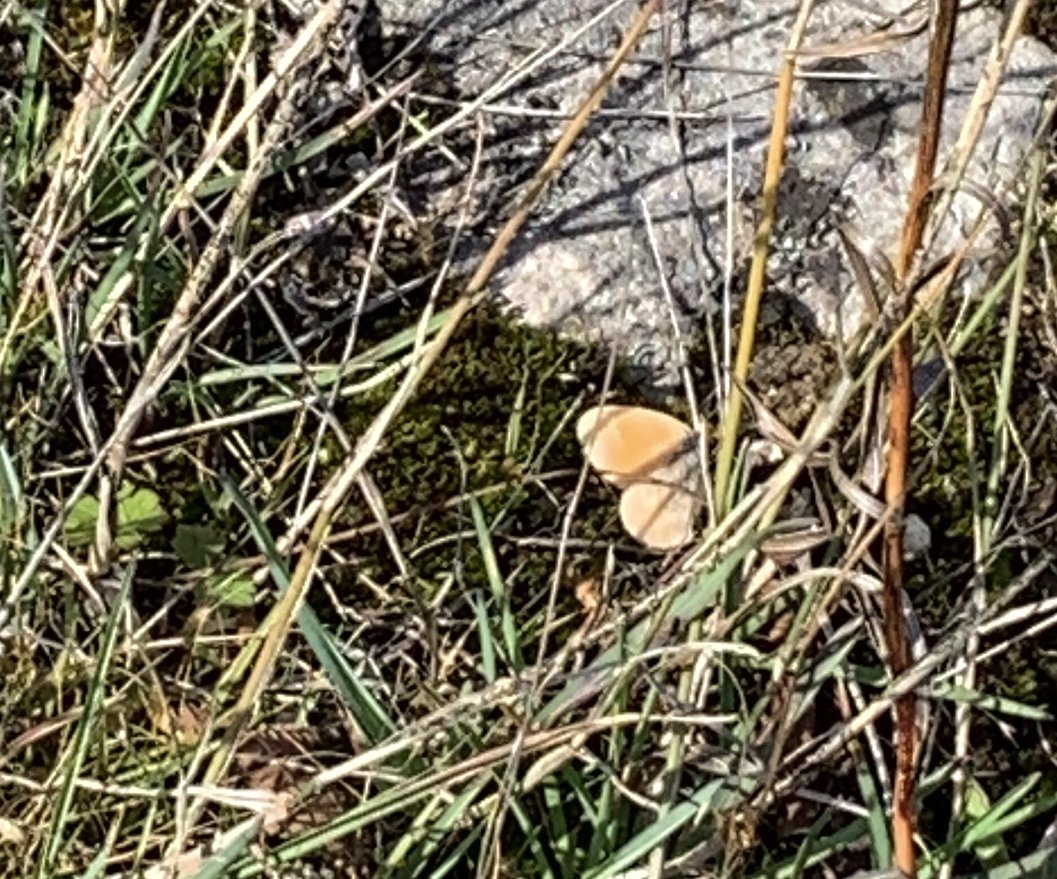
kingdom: Animalia
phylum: Arthropoda
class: Insecta
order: Lepidoptera
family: Nymphalidae
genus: Coenonympha
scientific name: Coenonympha tullia
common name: Large Heath
